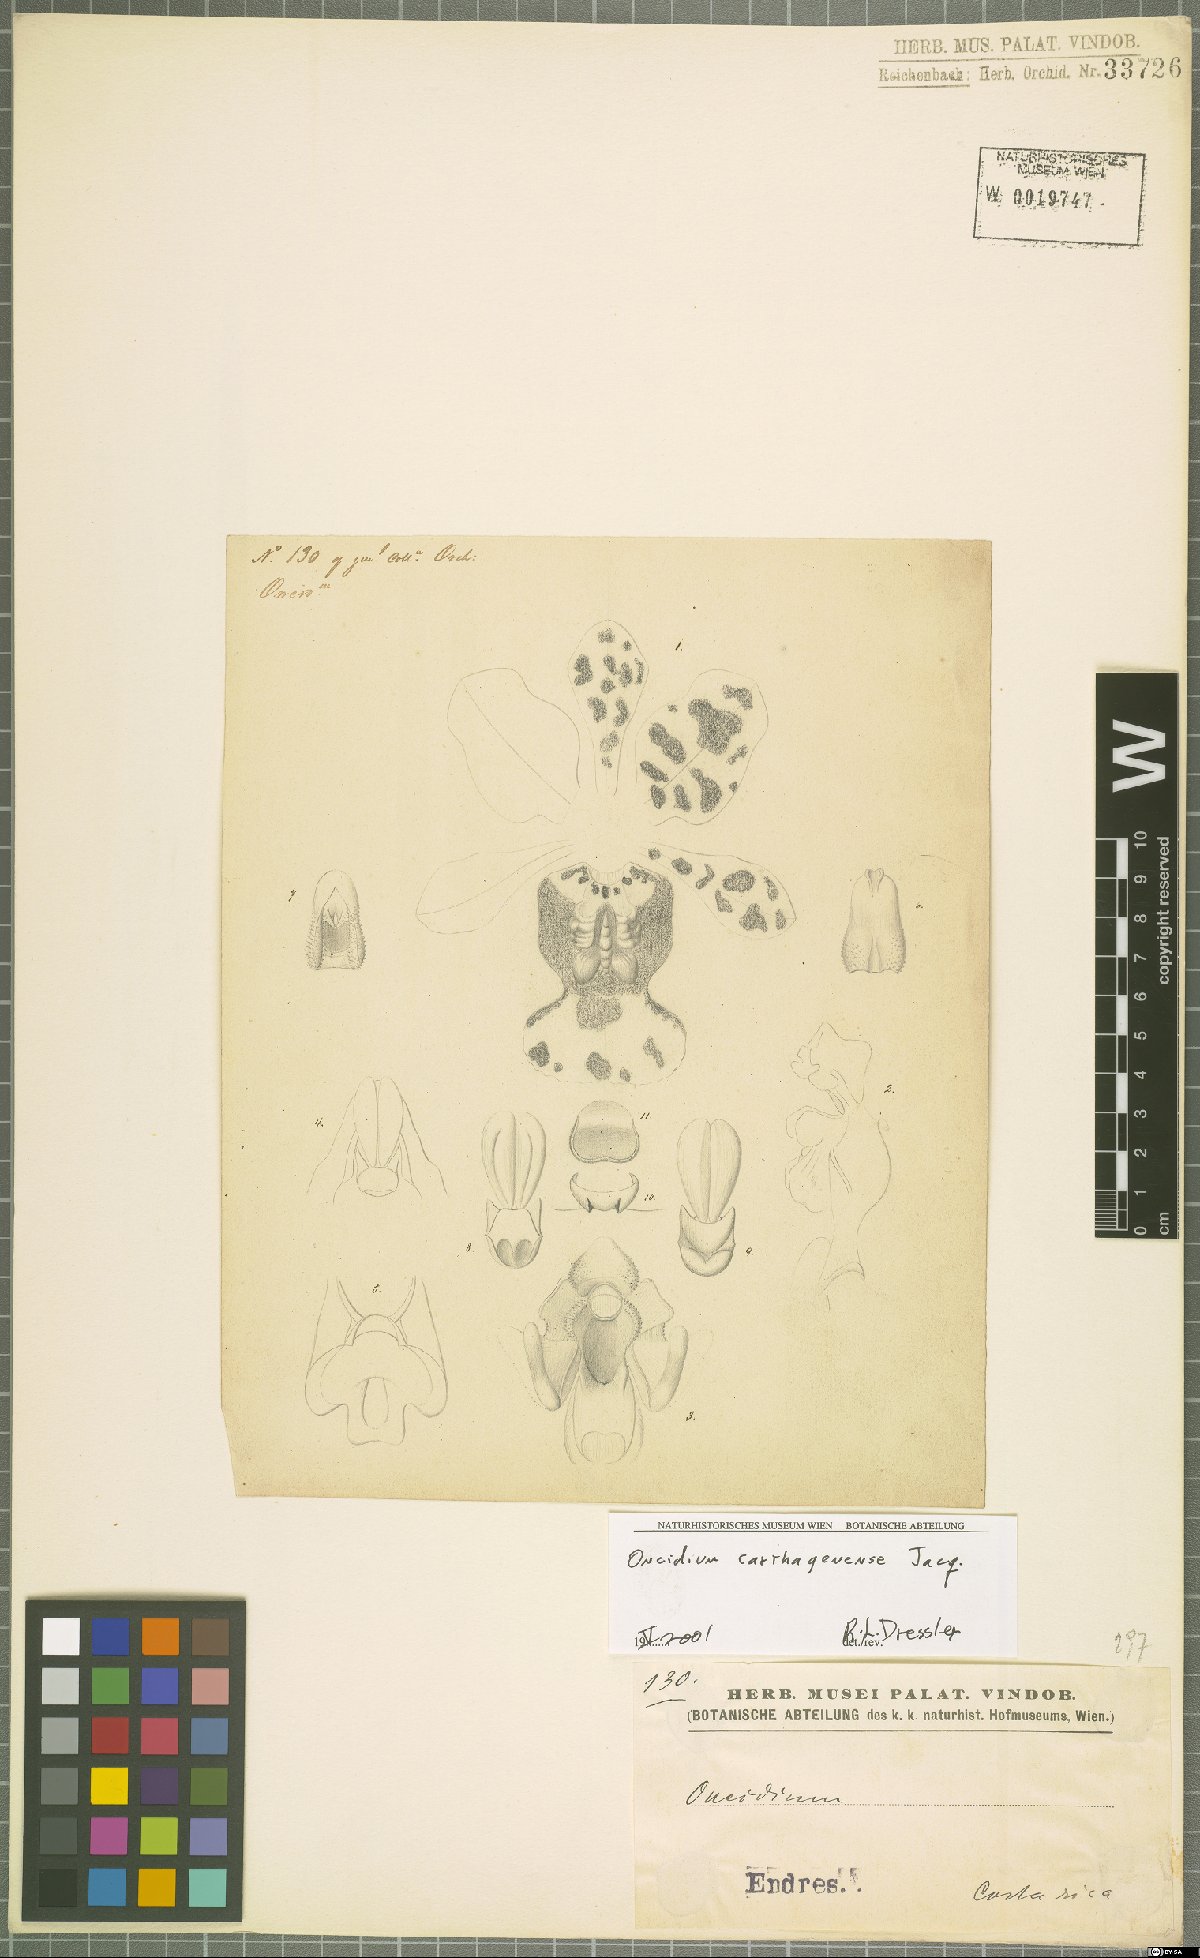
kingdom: Plantae
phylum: Tracheophyta
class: Liliopsida
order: Asparagales
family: Orchidaceae
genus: Trichocentrum
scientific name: Trichocentrum carthagenense
